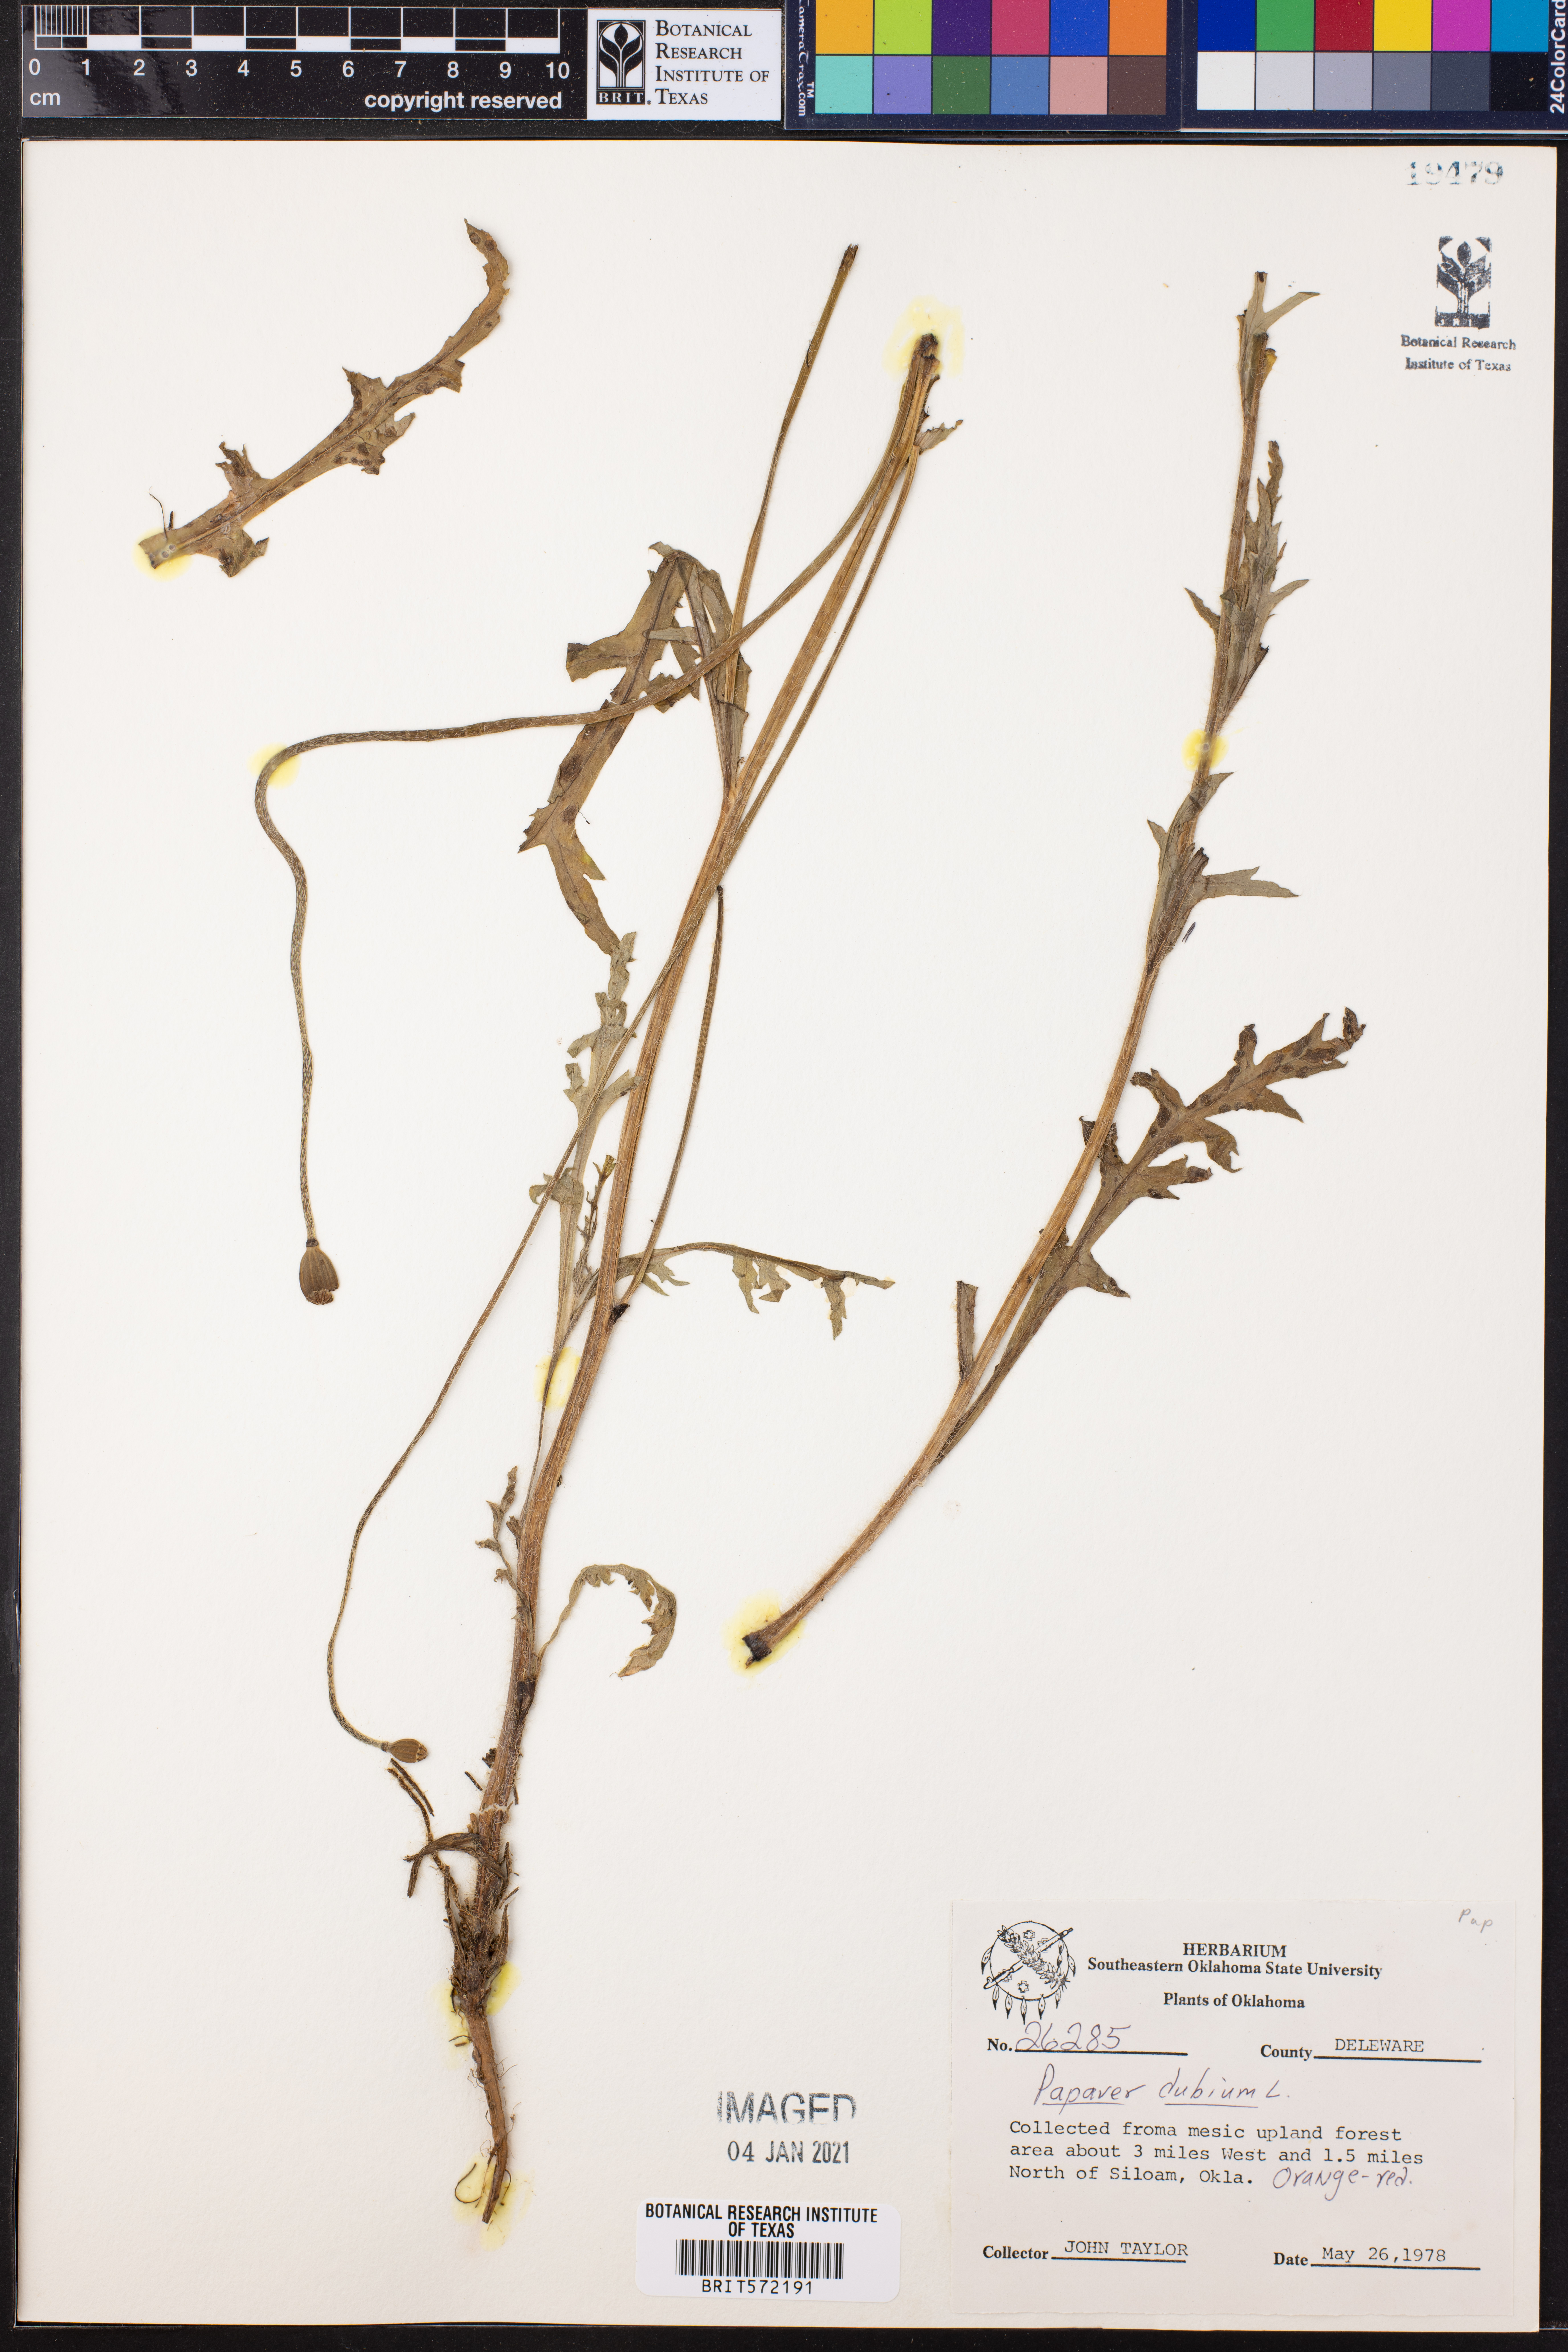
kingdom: Plantae
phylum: Tracheophyta
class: Magnoliopsida
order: Ranunculales
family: Papaveraceae
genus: Papaver
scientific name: Papaver dubium
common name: Long-headed poppy
